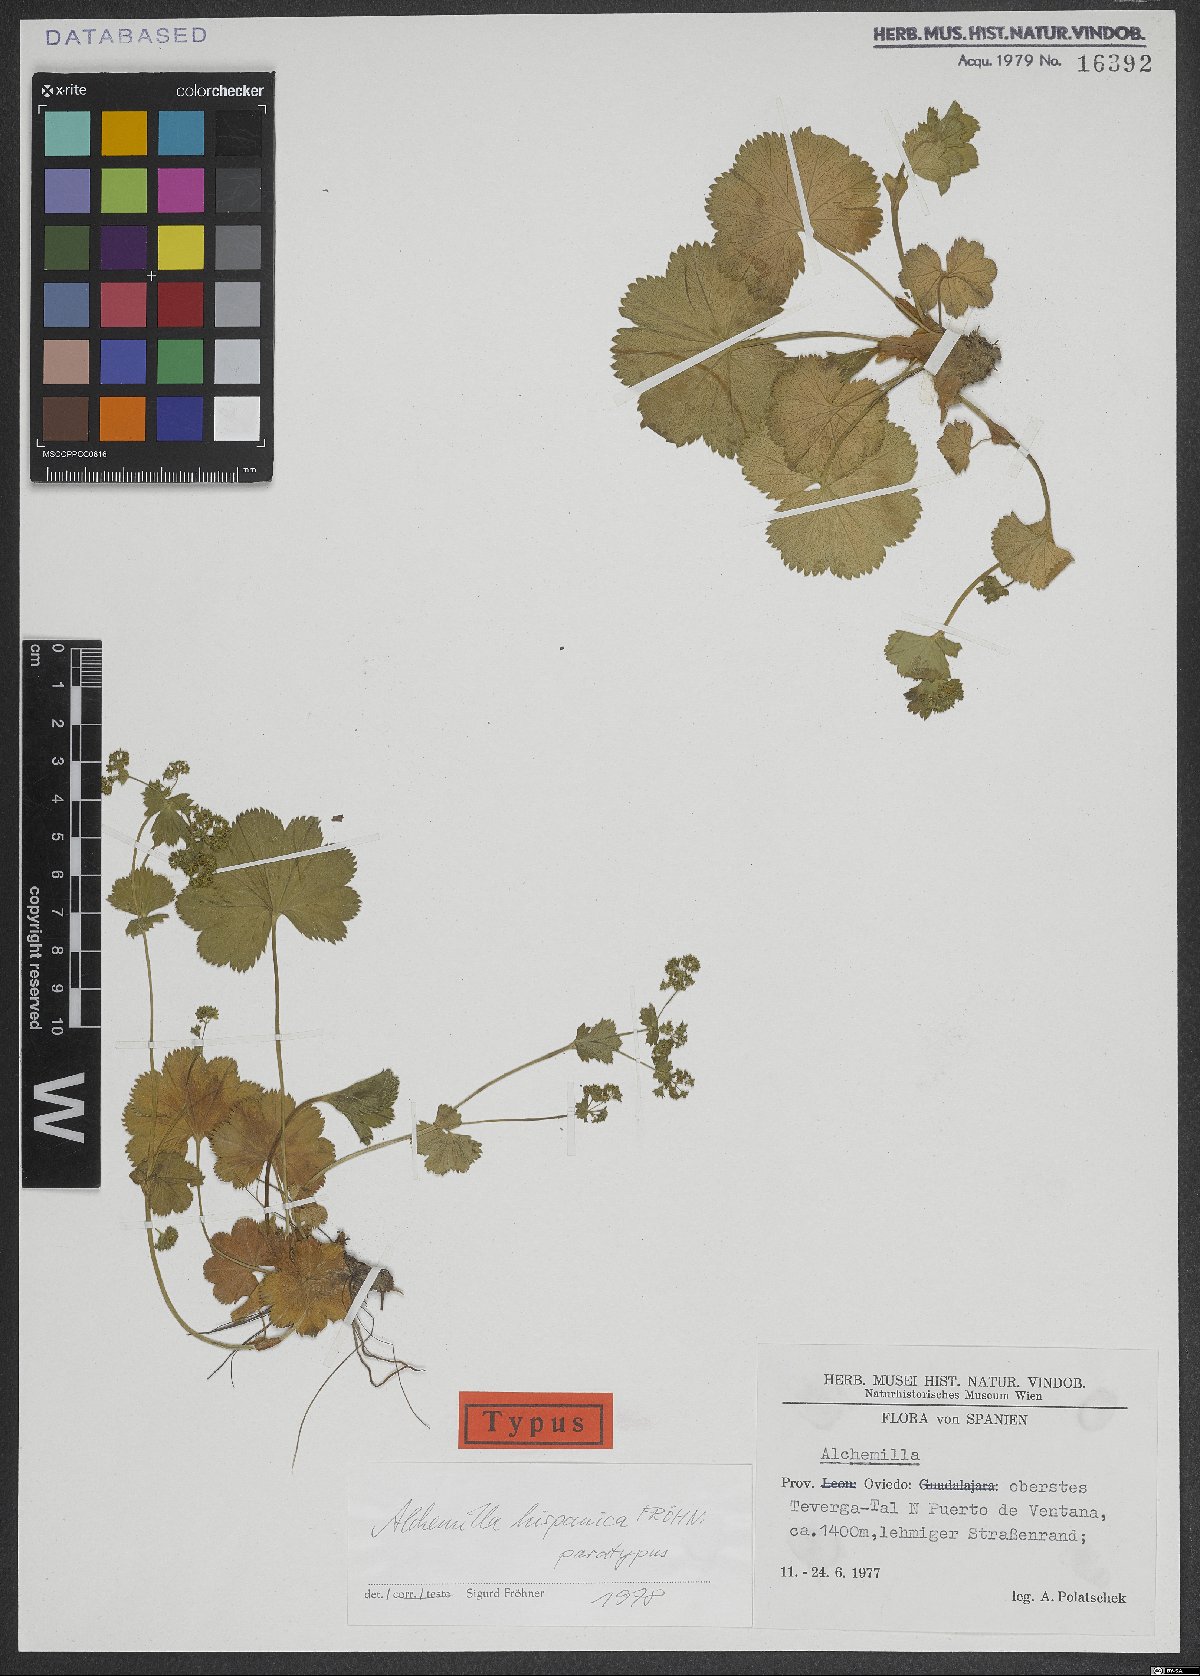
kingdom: Plantae
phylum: Tracheophyta
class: Magnoliopsida
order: Rosales
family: Rosaceae
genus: Alchemilla
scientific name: Alchemilla hispanica
